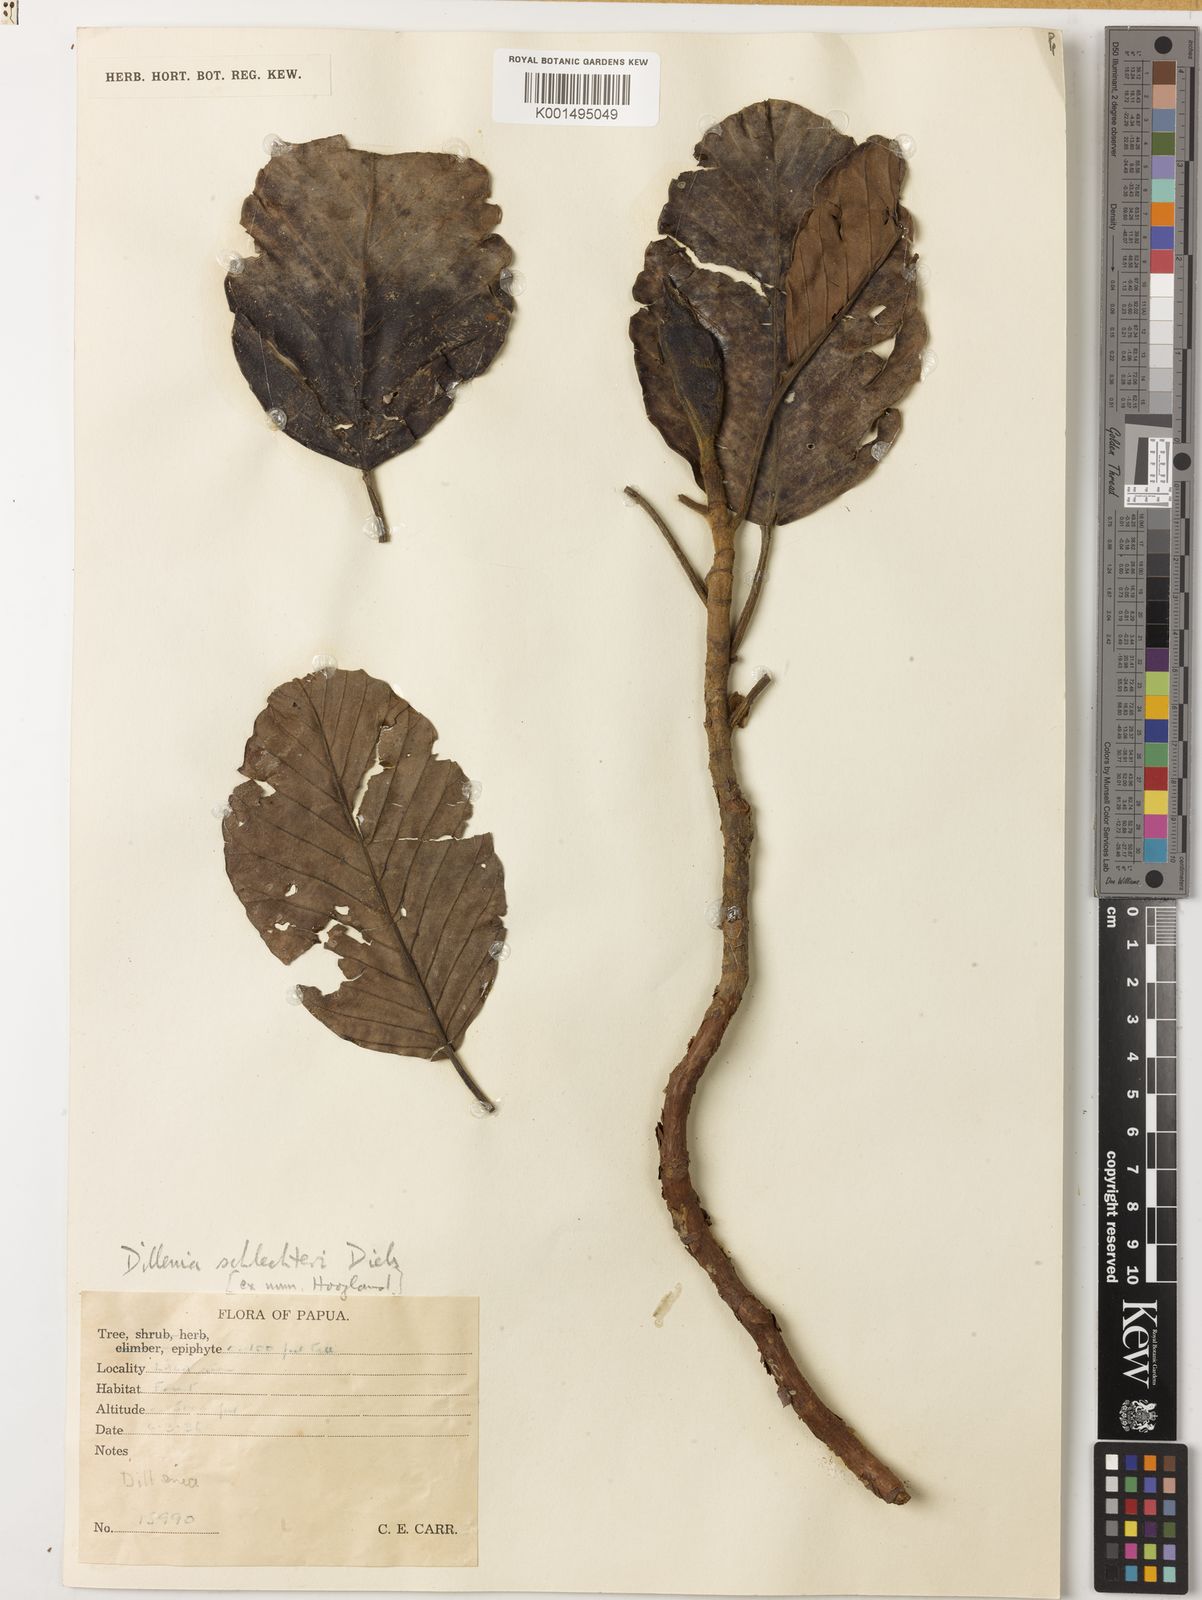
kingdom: Plantae
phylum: Tracheophyta
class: Magnoliopsida
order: Dilleniales
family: Dilleniaceae
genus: Dillenia
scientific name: Dillenia schlechteri
